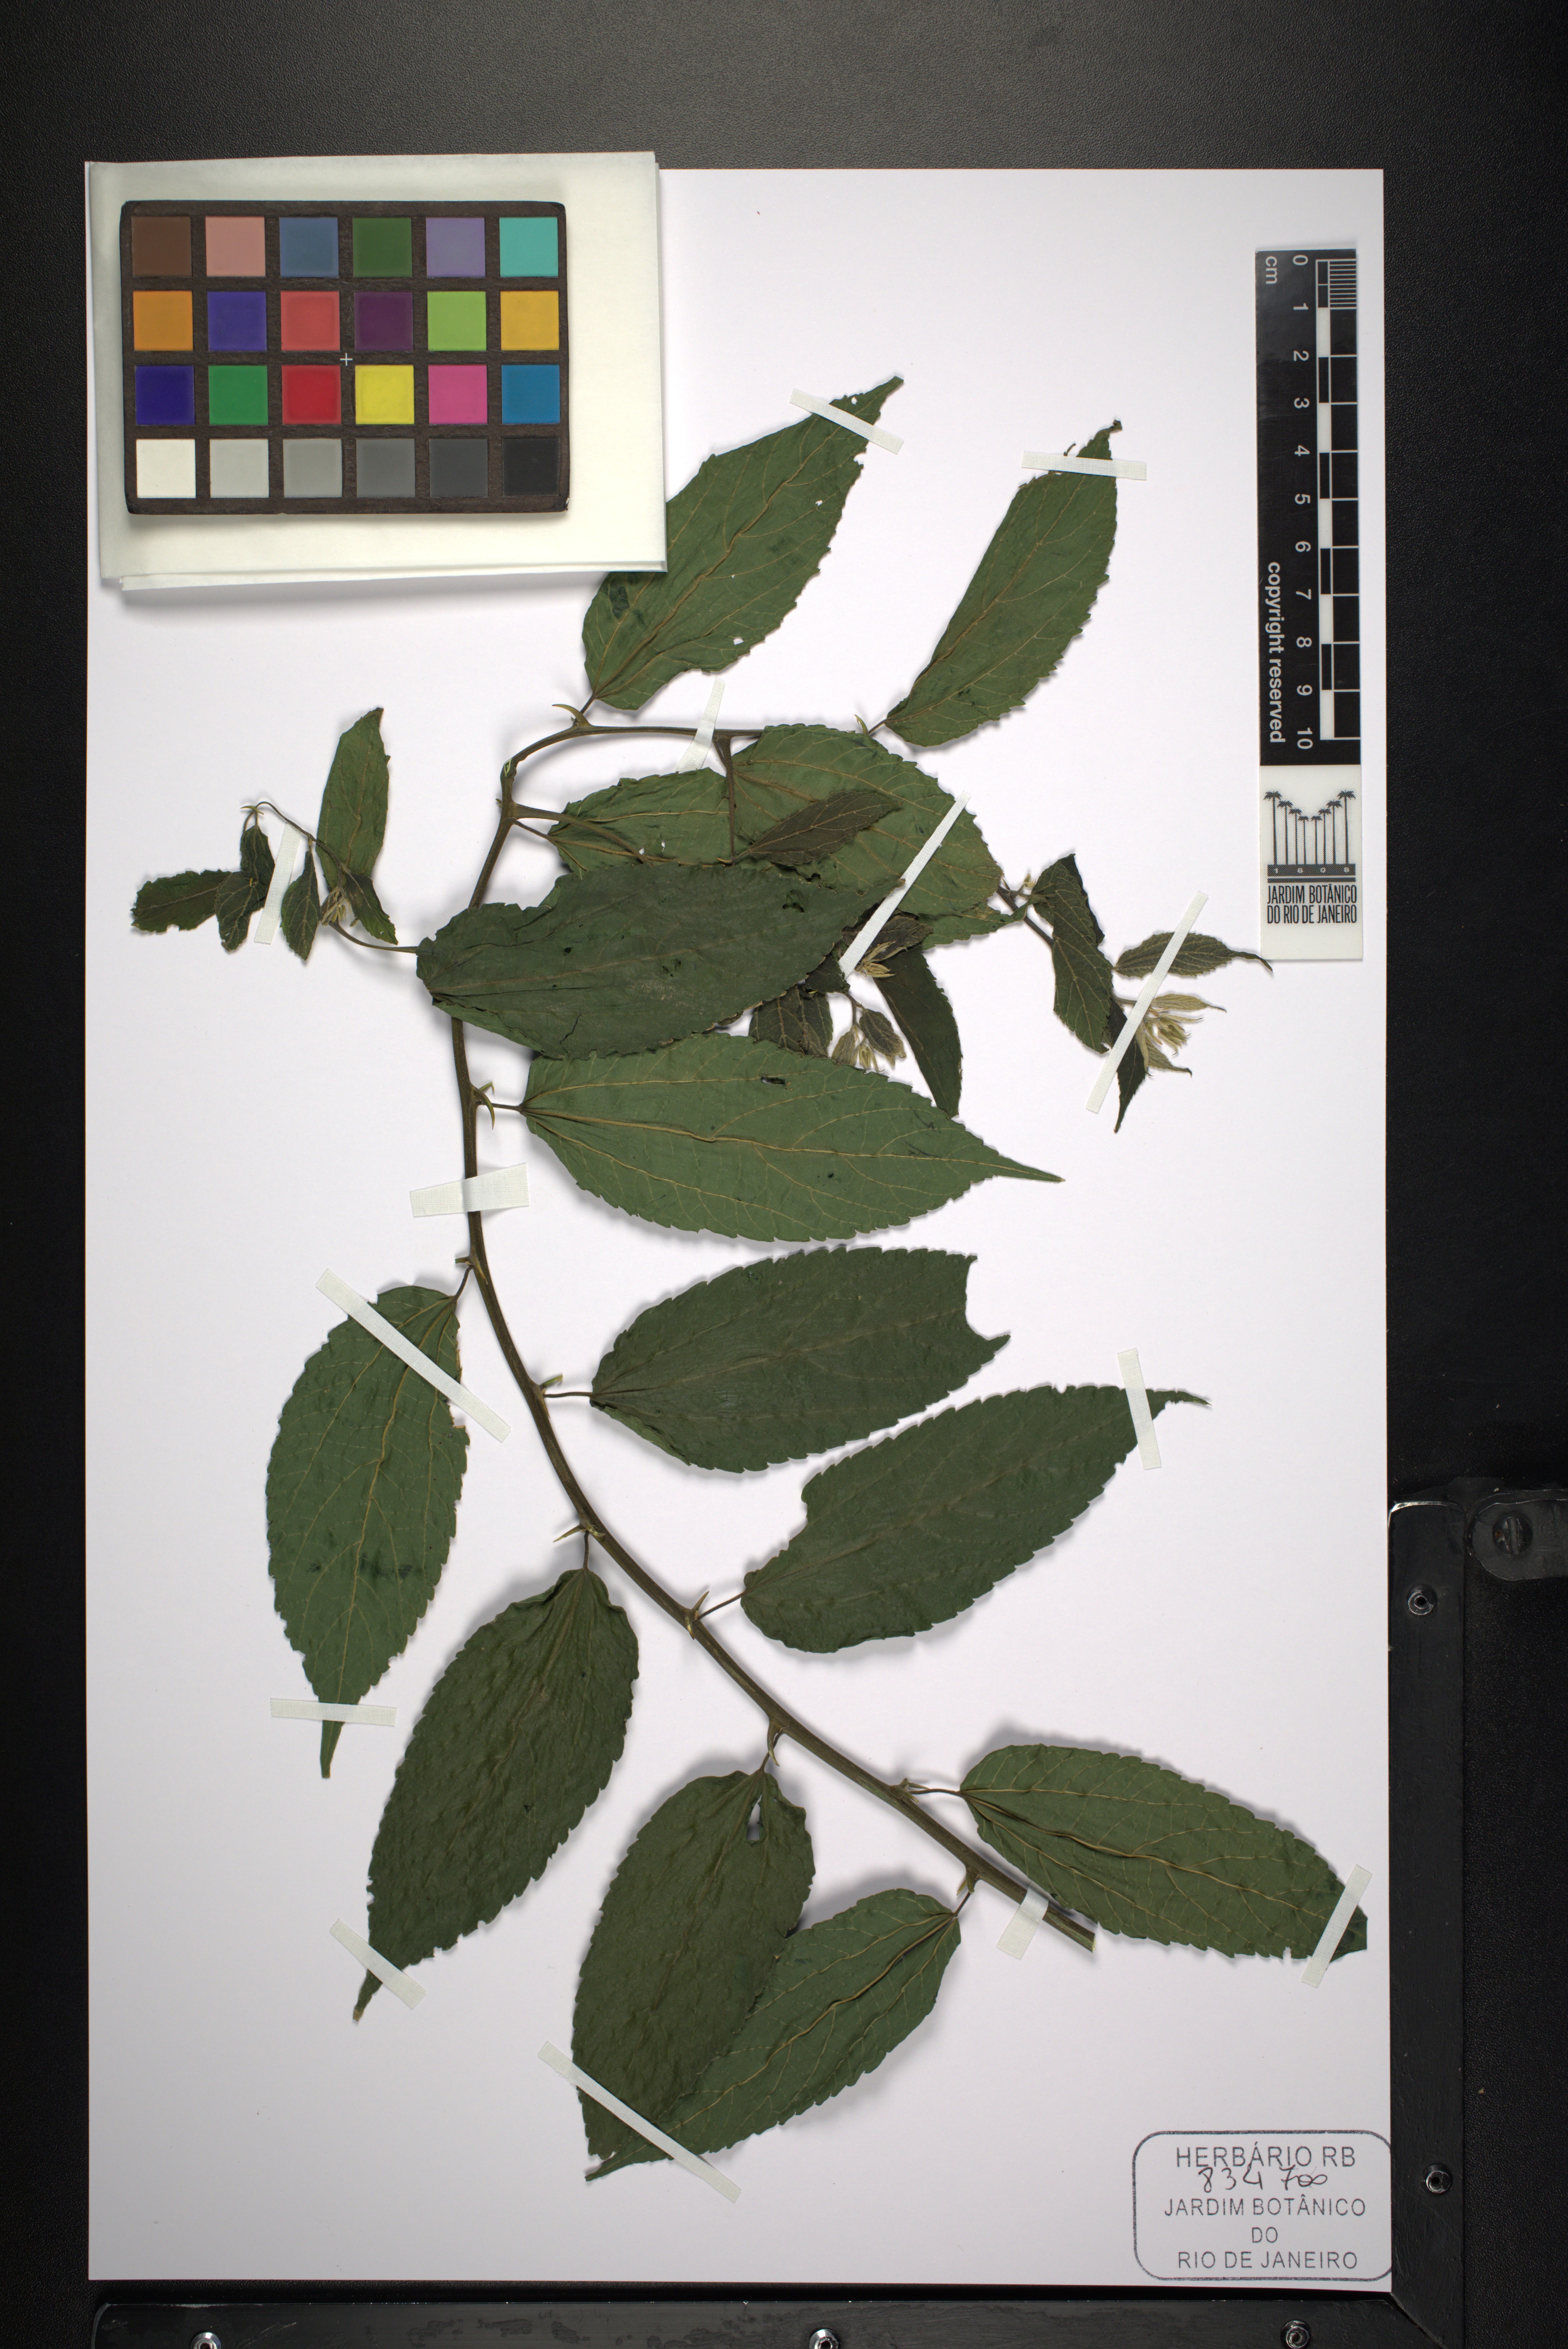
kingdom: Plantae
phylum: Tracheophyta
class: Magnoliopsida
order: Rosales
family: Cannabaceae
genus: Celtis
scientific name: Celtis iguanaea
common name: Iguana hackberry
